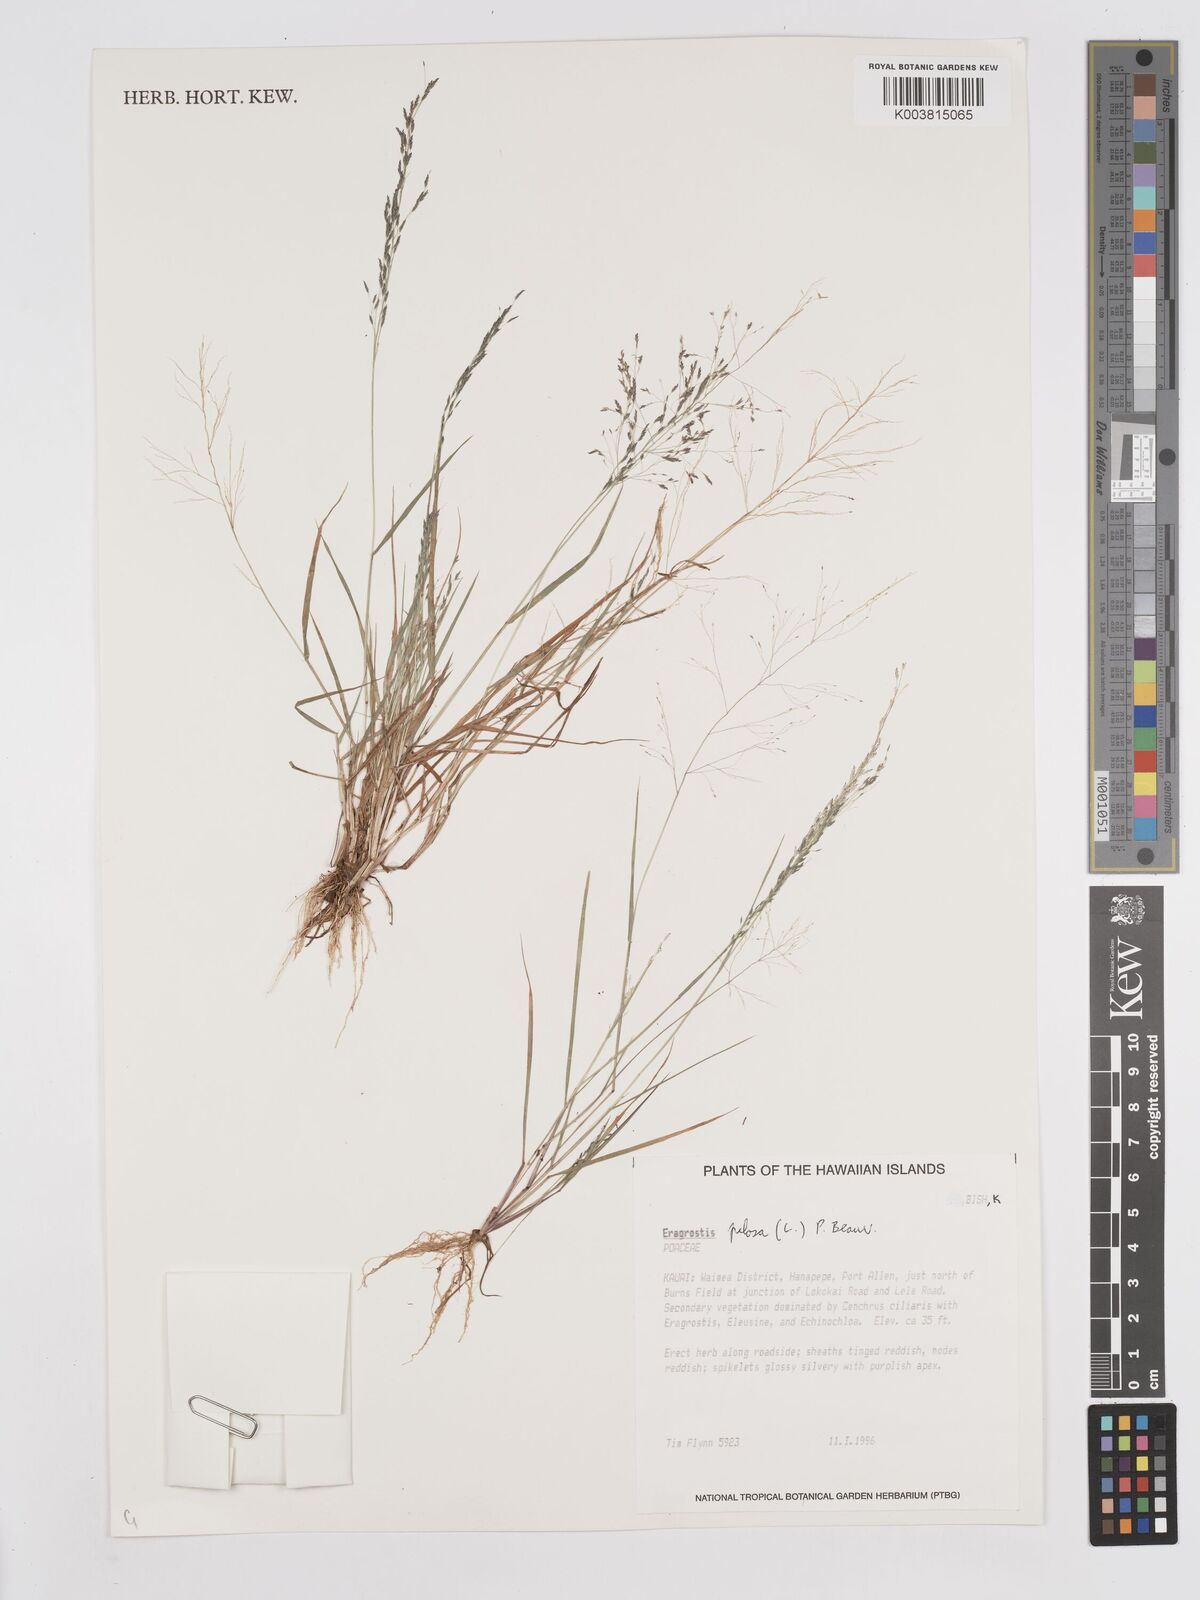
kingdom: Plantae
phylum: Tracheophyta
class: Liliopsida
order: Poales
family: Poaceae
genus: Eragrostis
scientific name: Eragrostis pilosa
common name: Indian lovegrass
